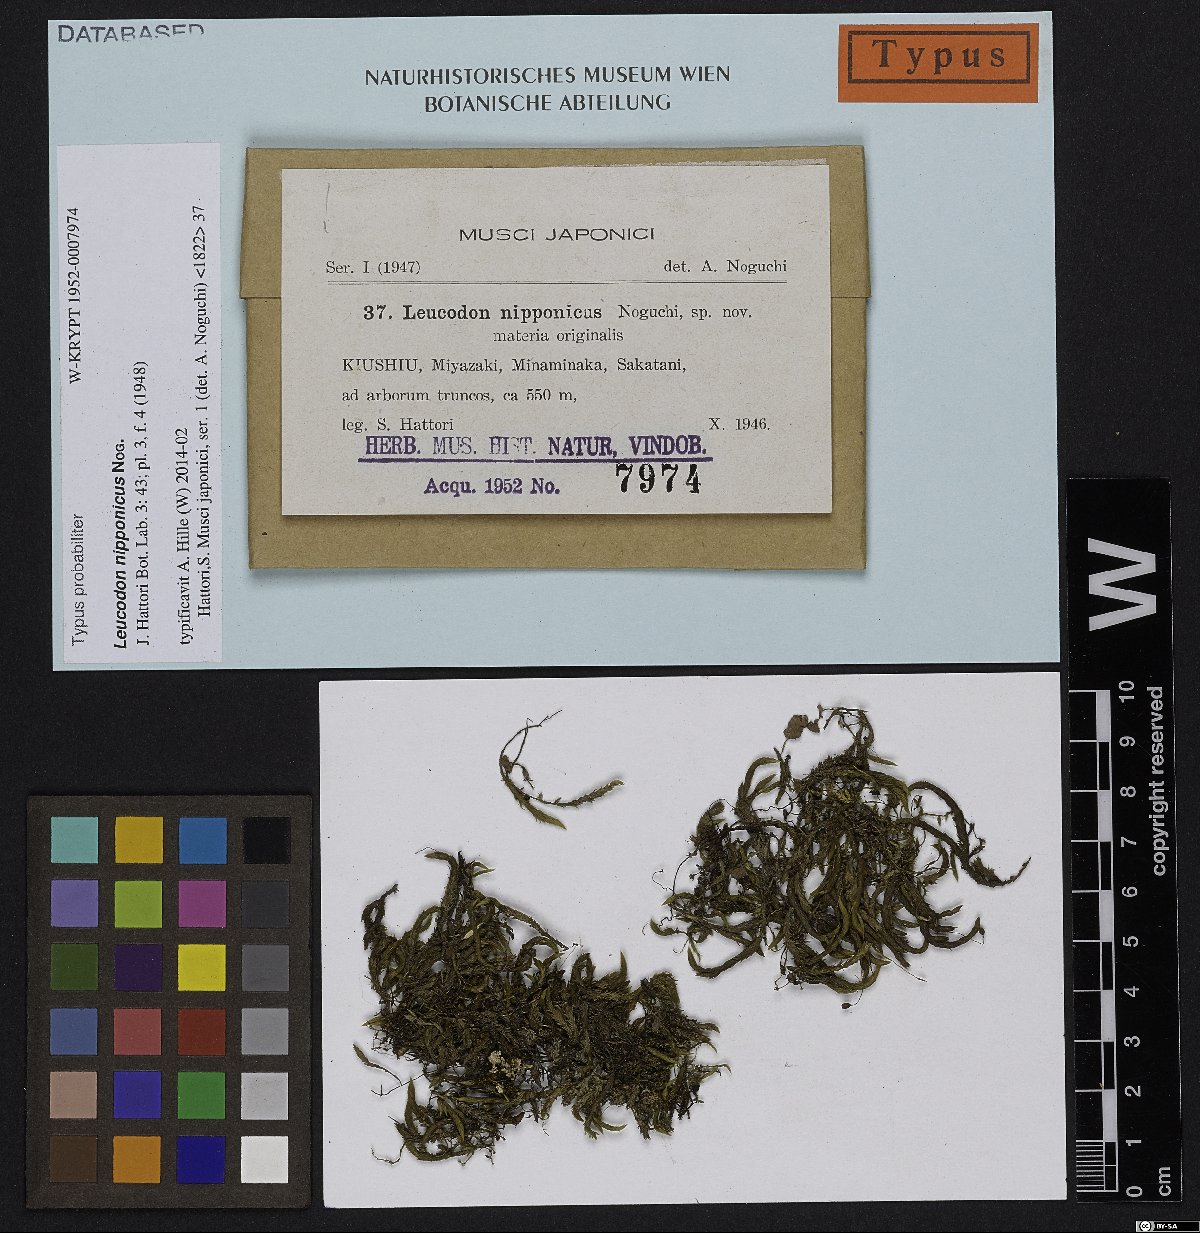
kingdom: Plantae
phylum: Bryophyta
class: Bryopsida
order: Hypnales
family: Leucodontaceae
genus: Leucodon
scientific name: Leucodon nipponicus
